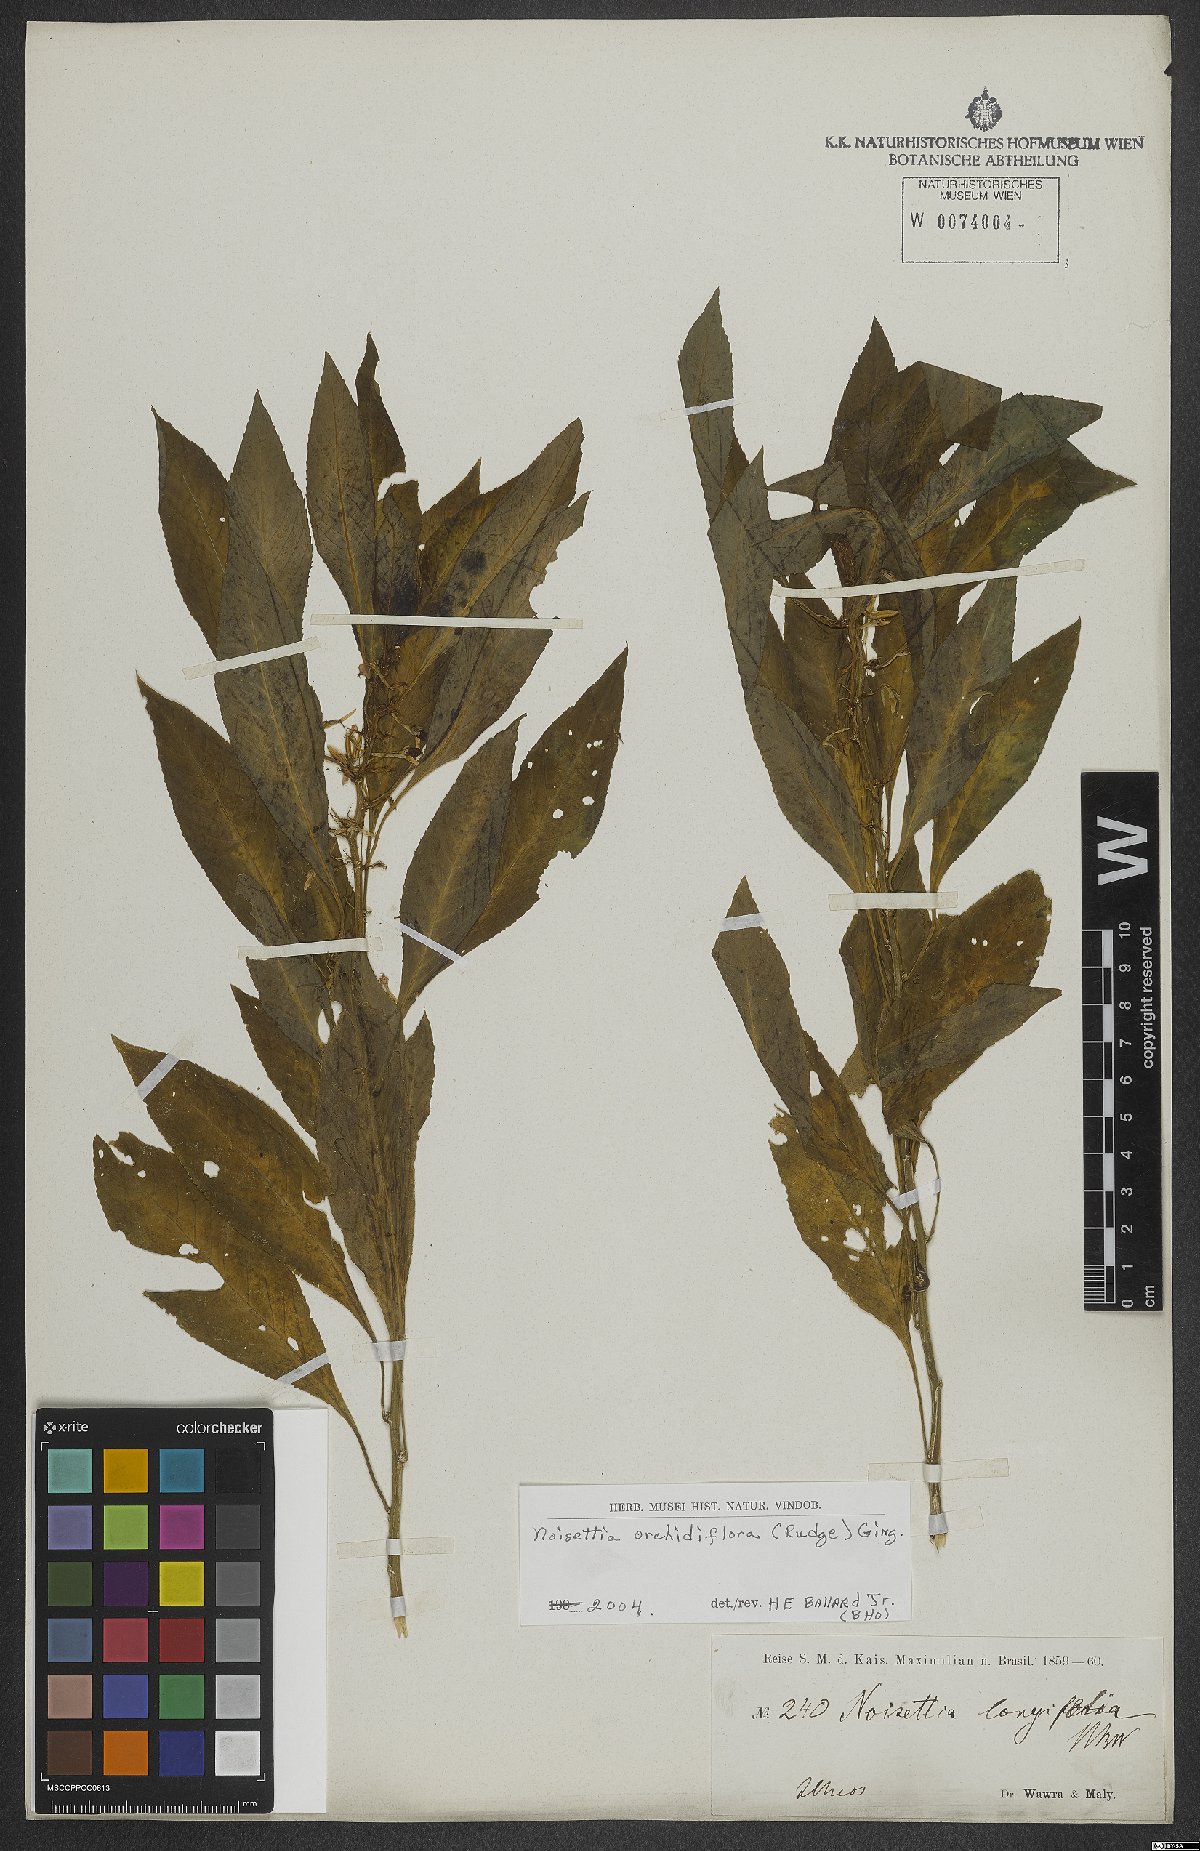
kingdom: Plantae
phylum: Tracheophyta
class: Magnoliopsida
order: Malpighiales
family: Violaceae
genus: Noisettia
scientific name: Noisettia orchidiflora
